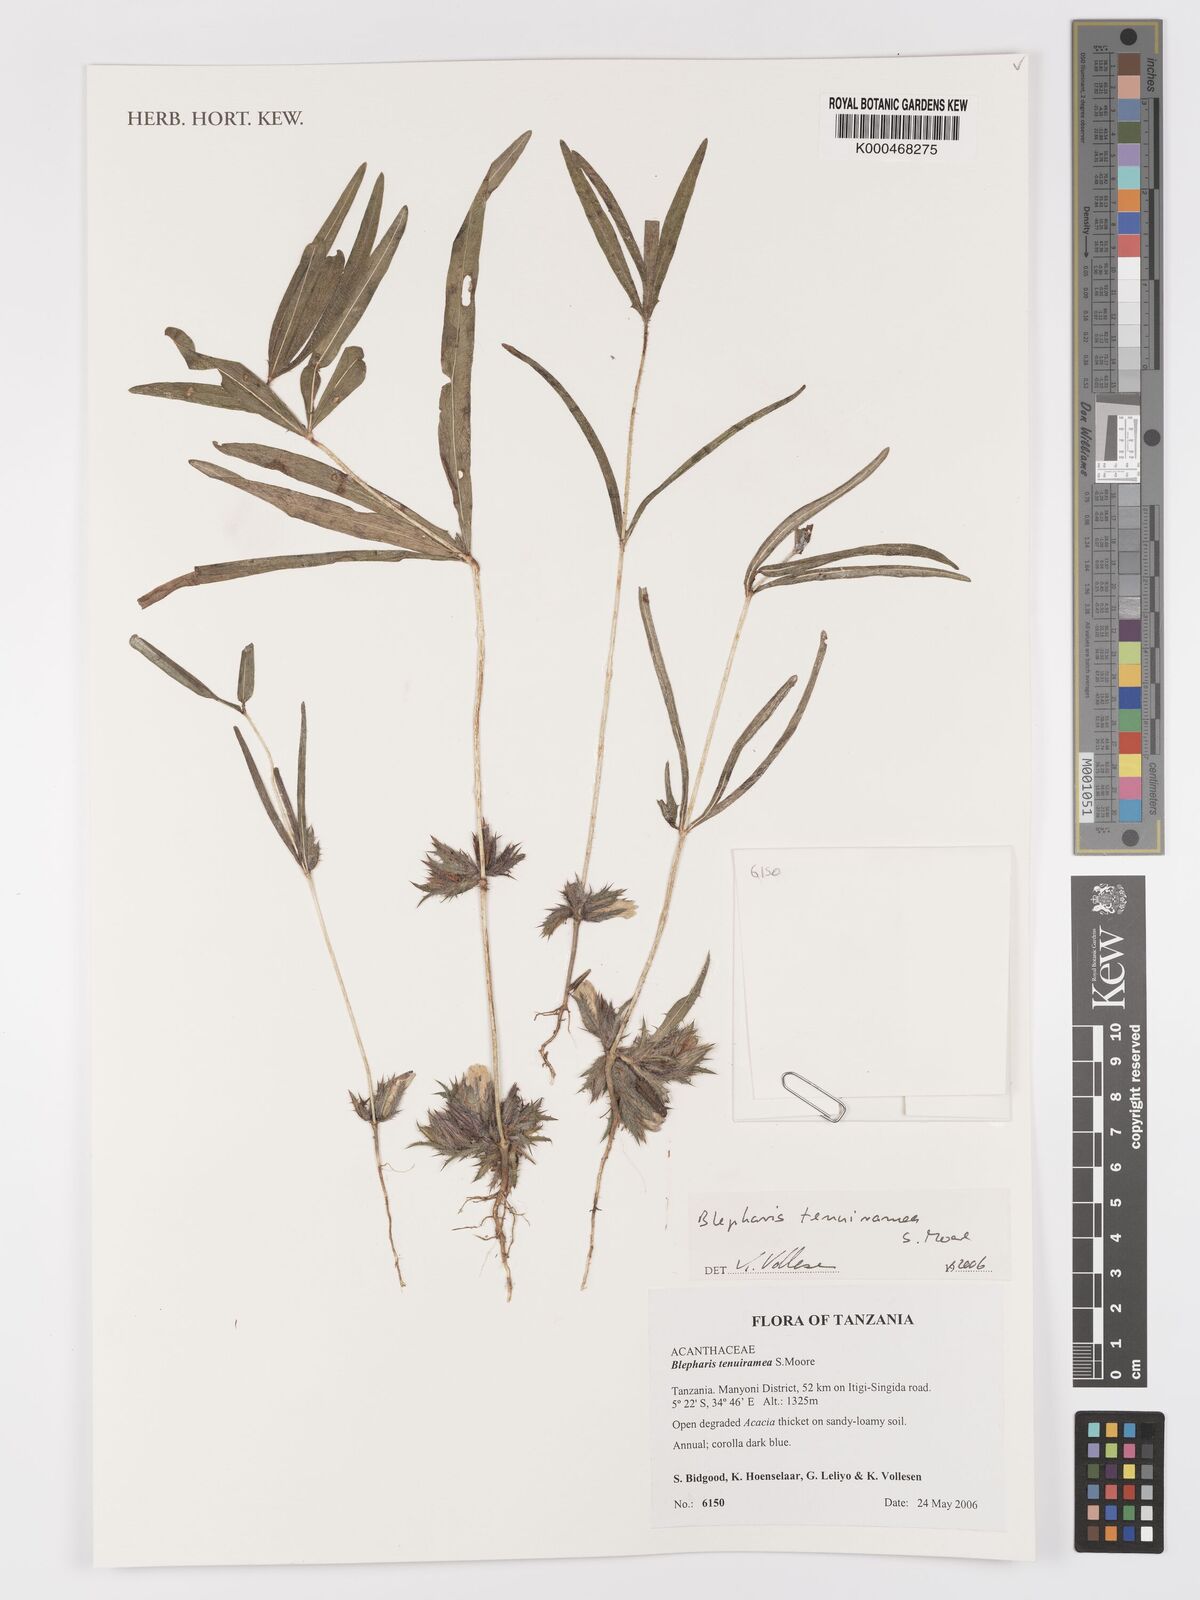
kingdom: Plantae
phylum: Tracheophyta
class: Magnoliopsida
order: Lamiales
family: Acanthaceae
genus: Blepharis
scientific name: Blepharis tenuiramea
